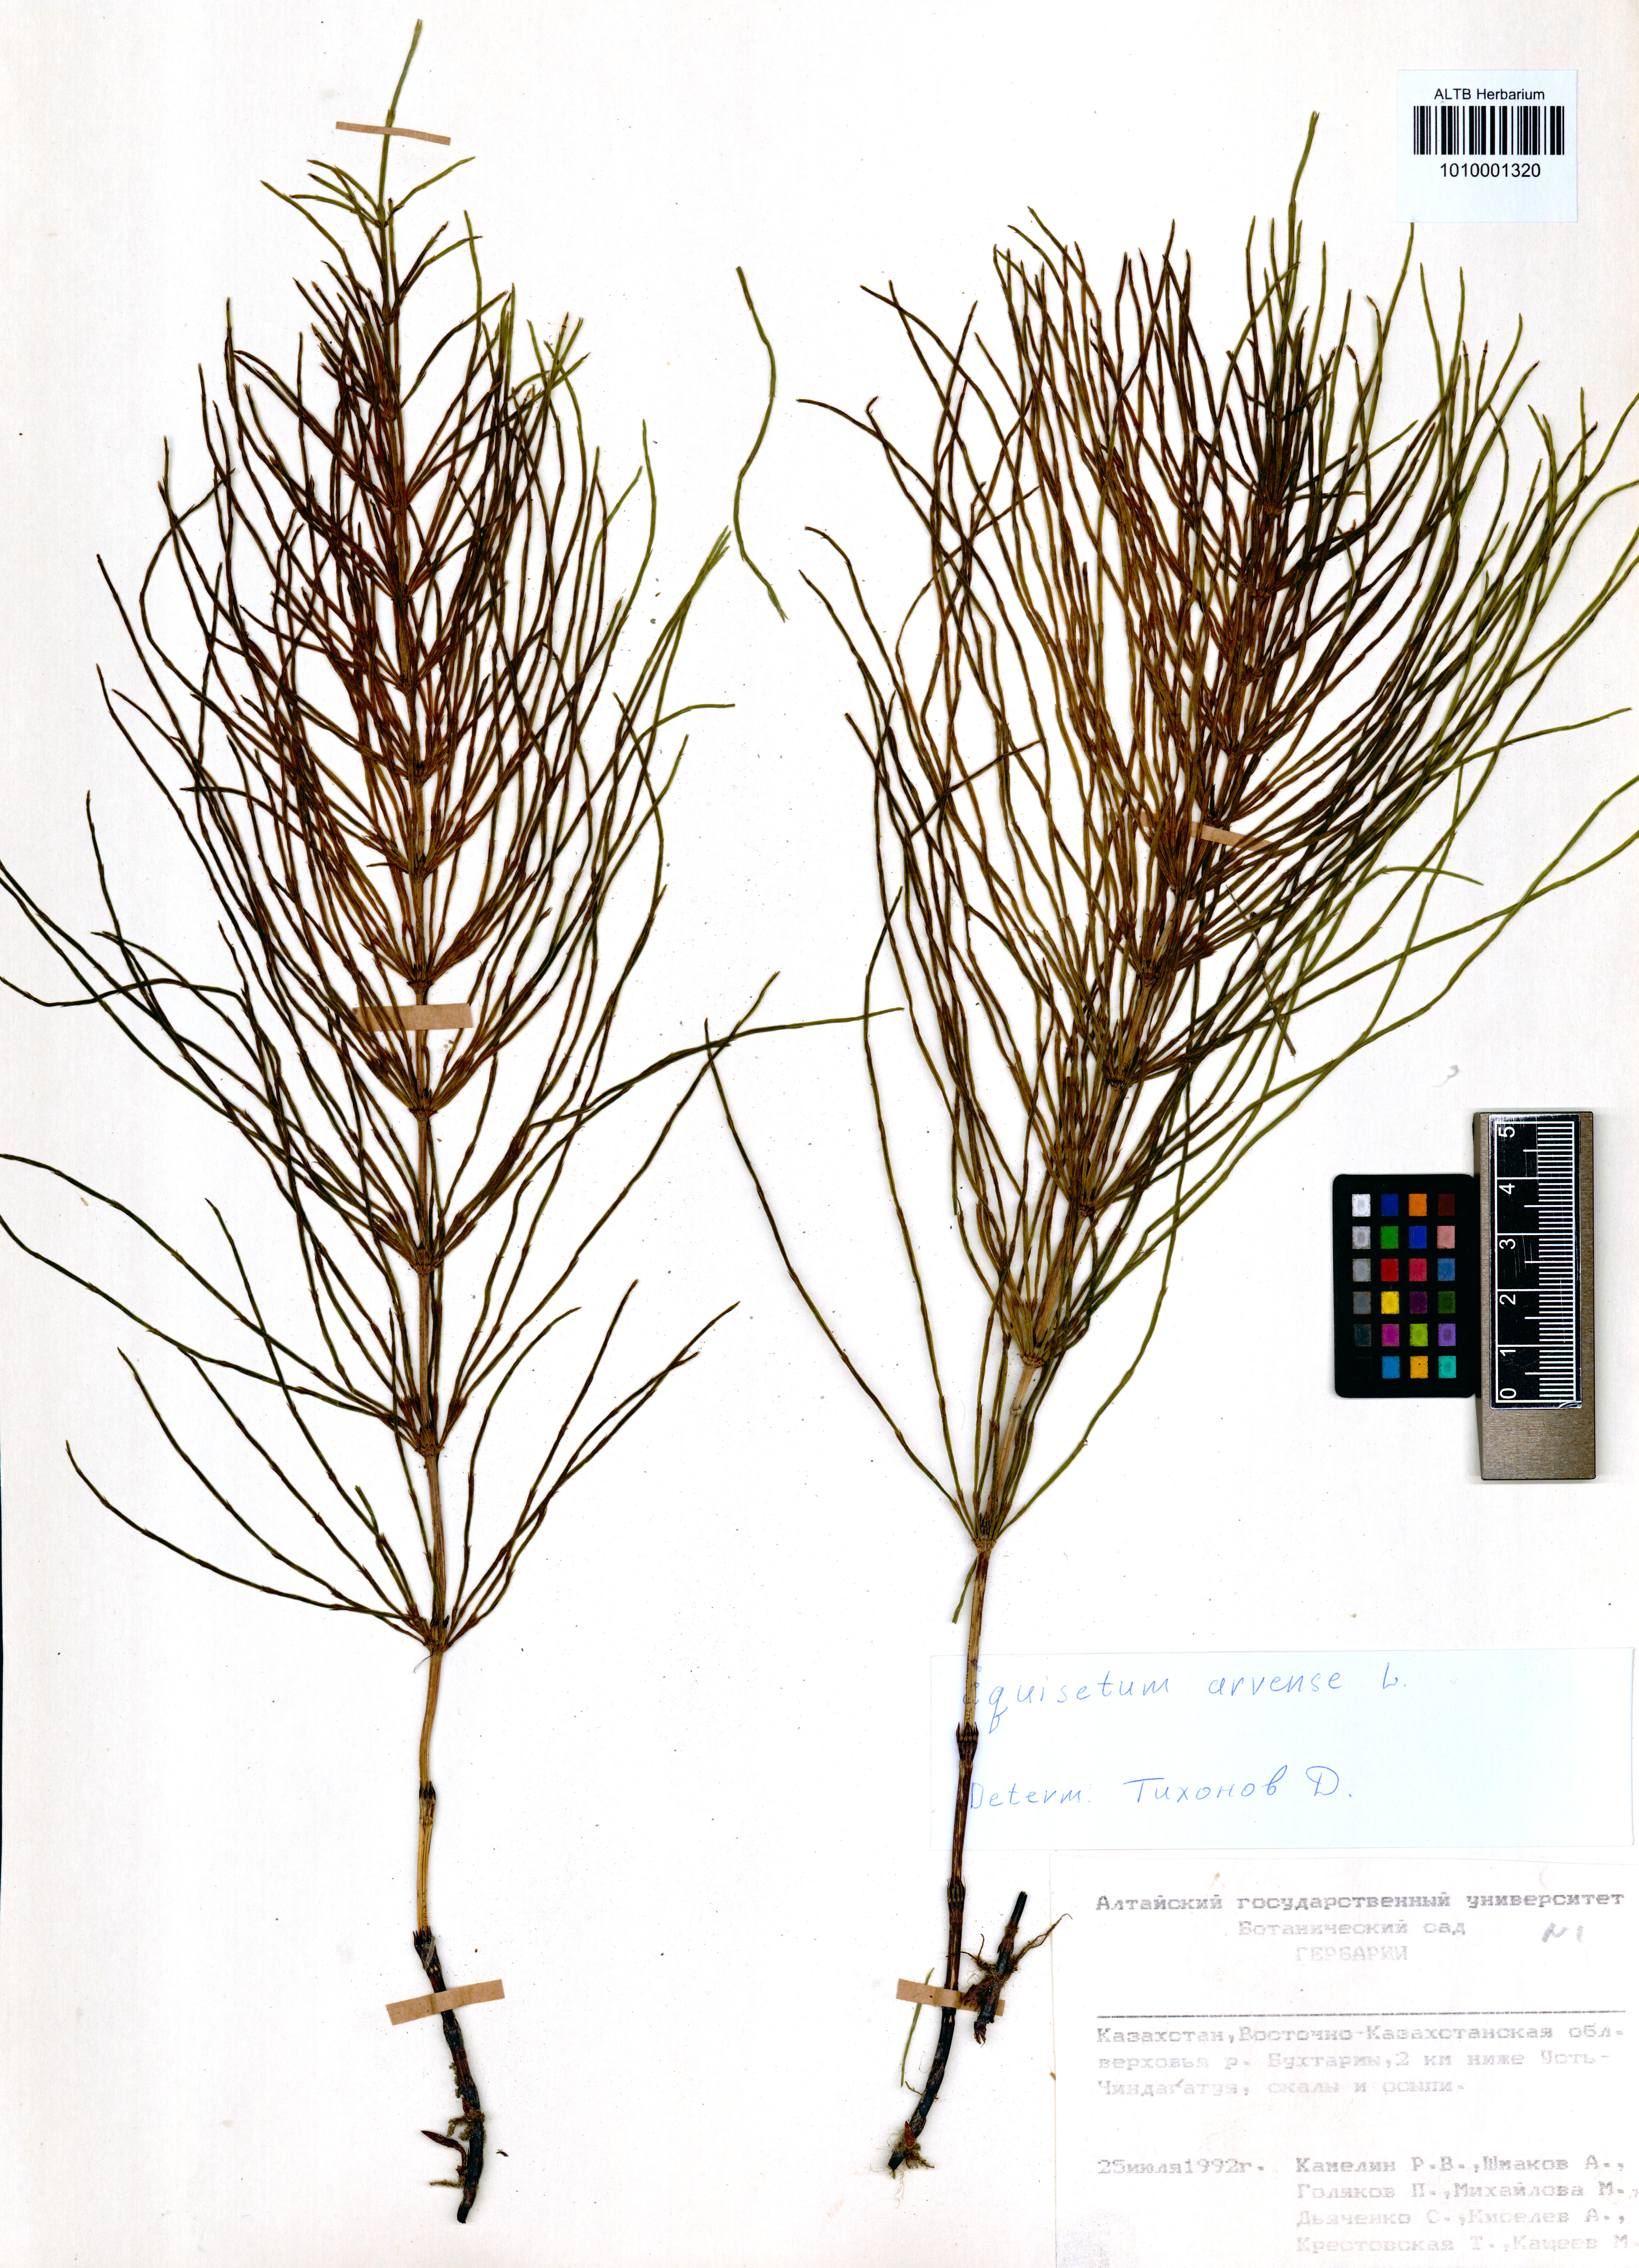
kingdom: Plantae
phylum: Tracheophyta
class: Polypodiopsida
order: Equisetales
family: Equisetaceae
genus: Equisetum
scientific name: Equisetum arvense
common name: Field horsetail
